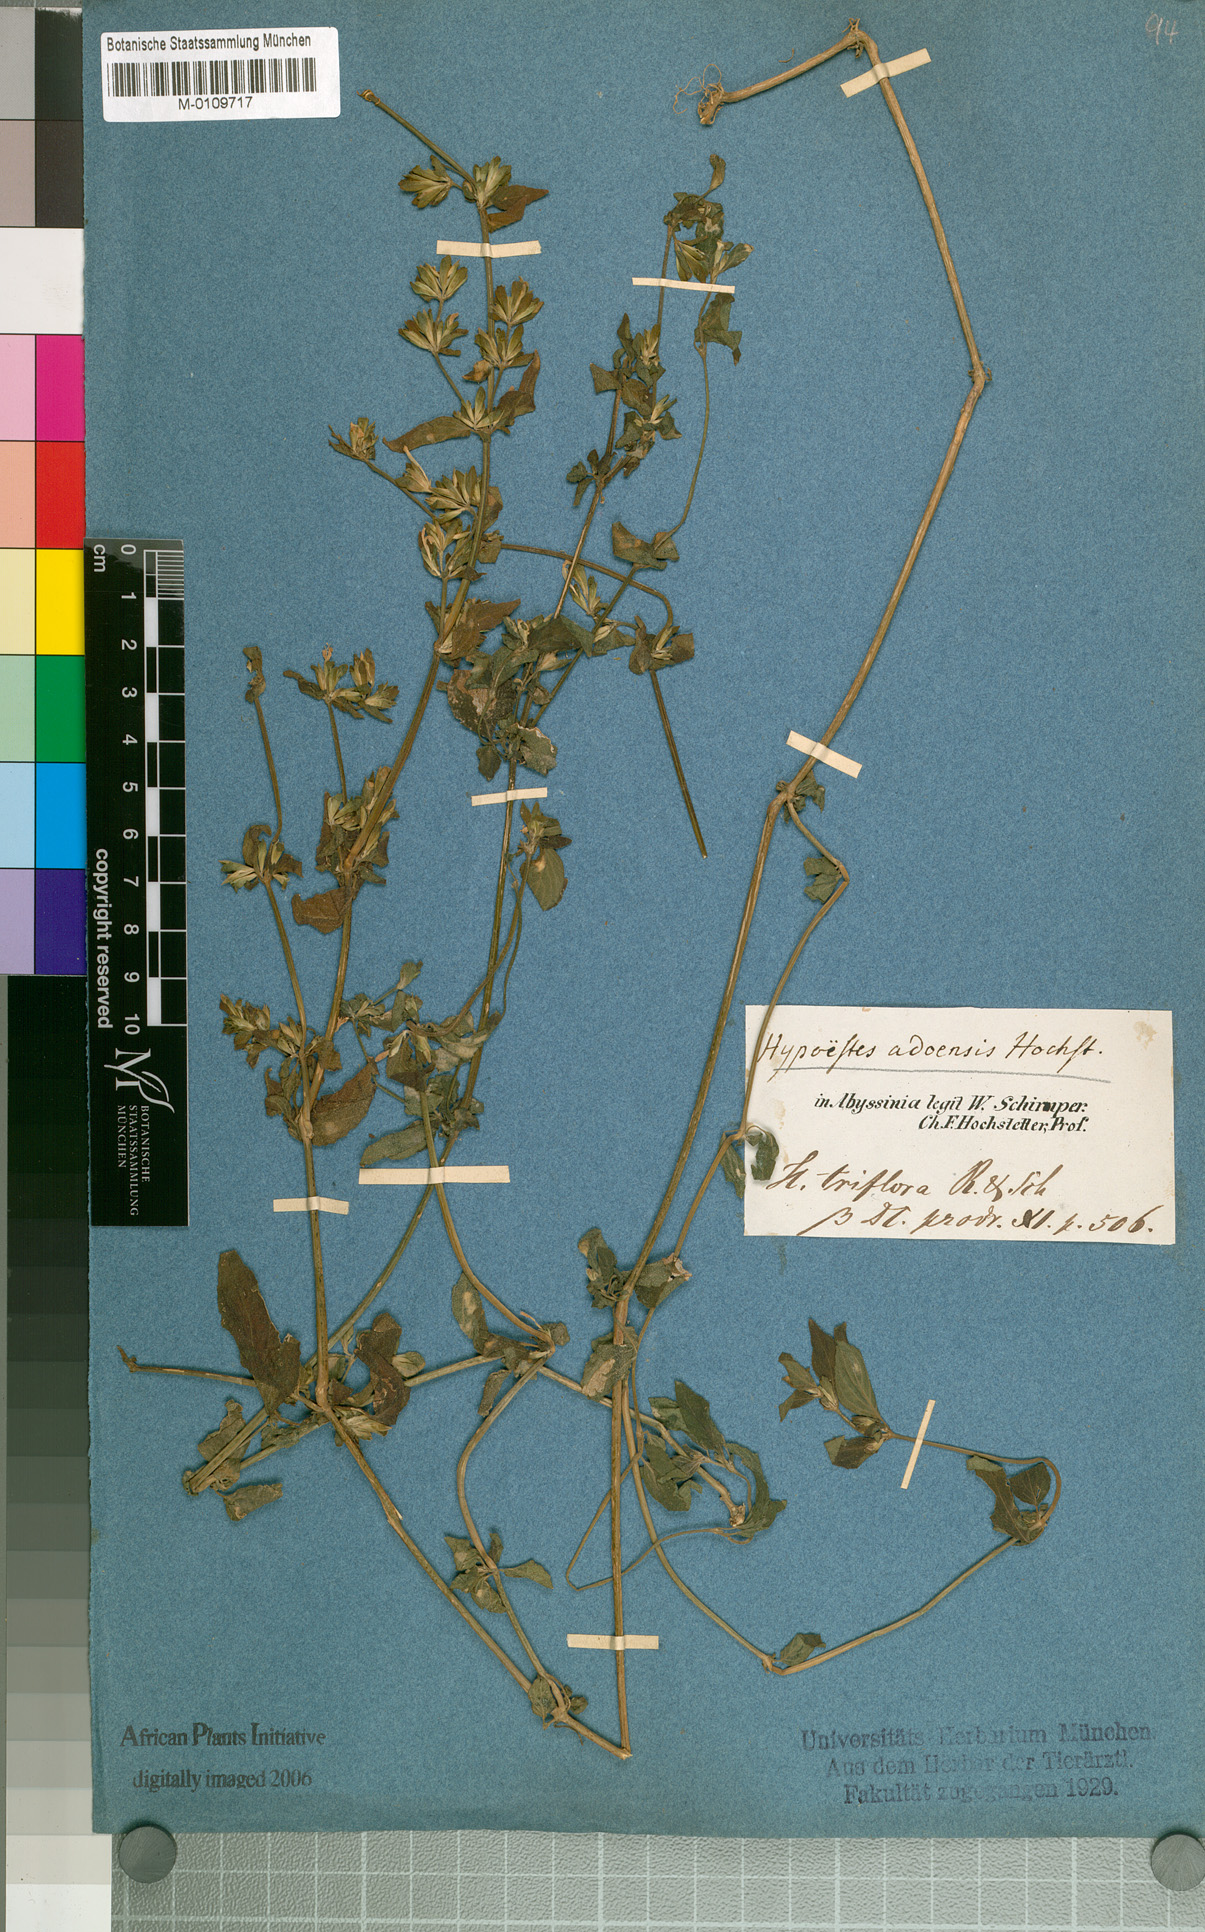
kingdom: Plantae
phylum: Tracheophyta
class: Magnoliopsida
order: Lamiales
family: Acanthaceae
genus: Hypoestes
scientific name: Hypoestes triflora
